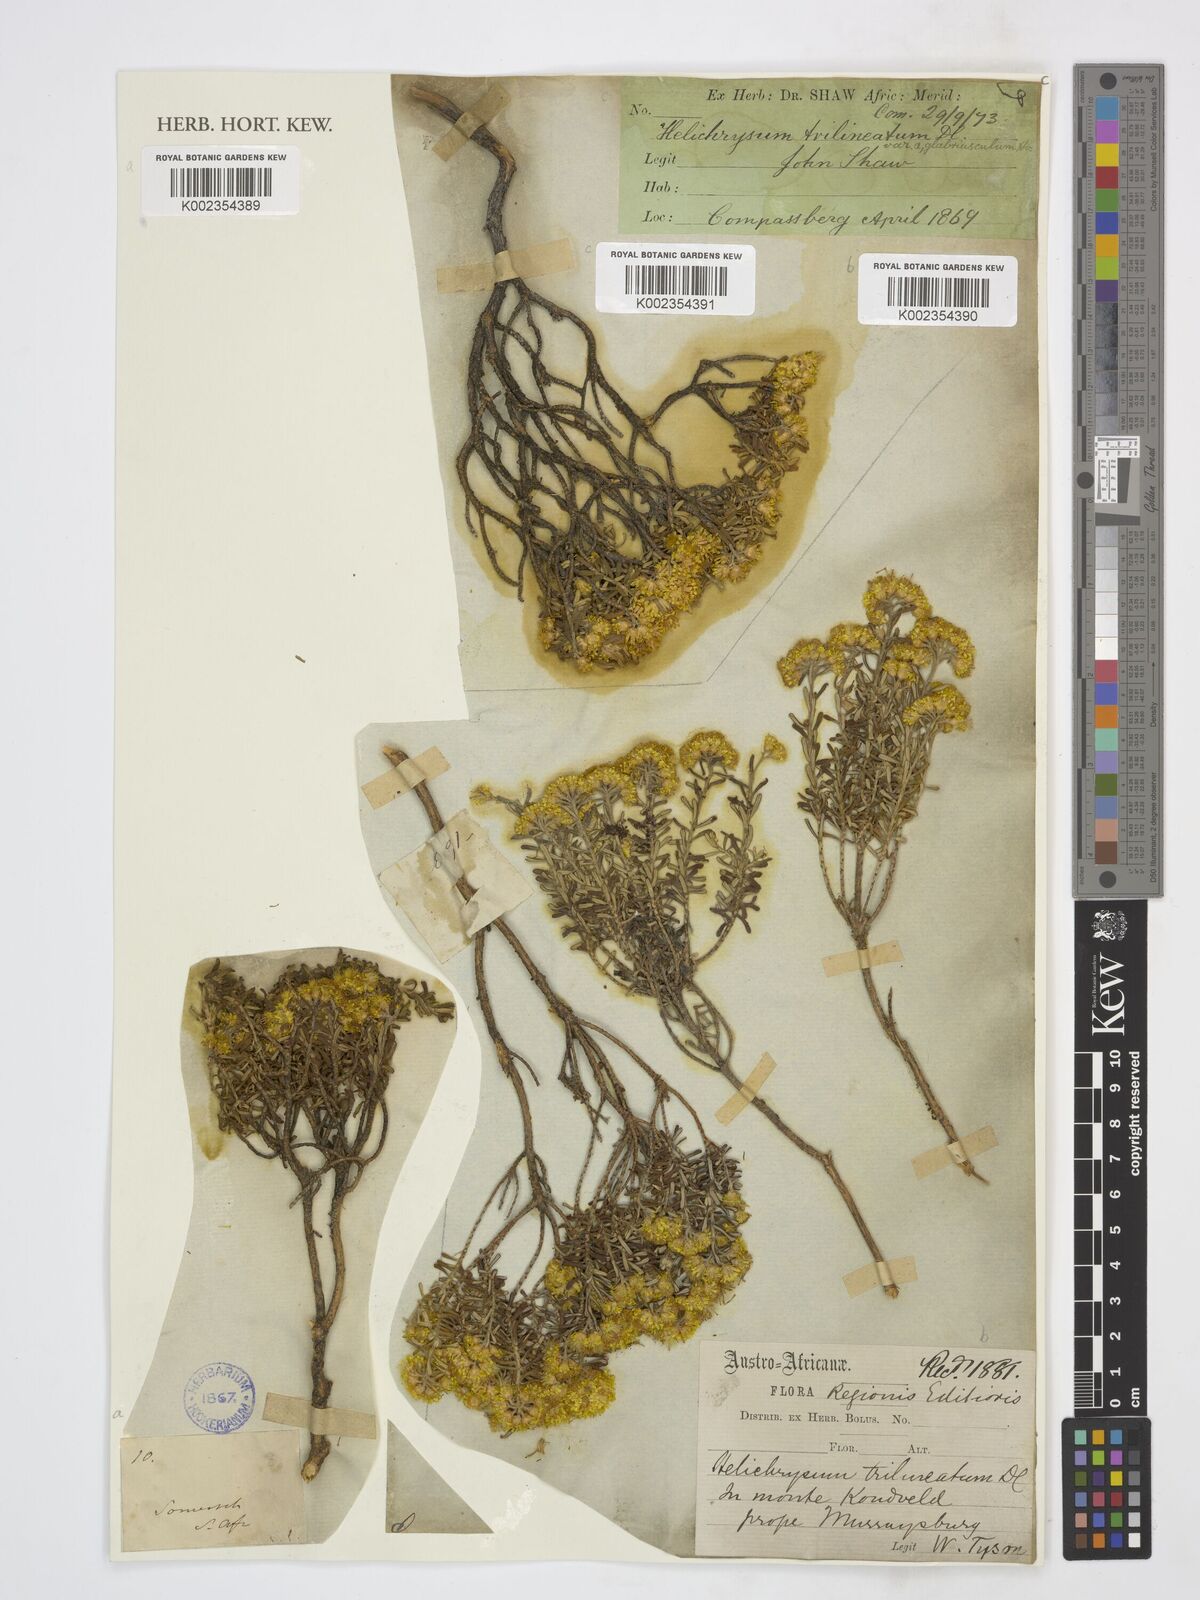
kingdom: Plantae
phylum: Tracheophyta
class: Magnoliopsida
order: Asterales
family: Asteraceae
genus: Helichrysum
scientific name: Helichrysum trilineatum
